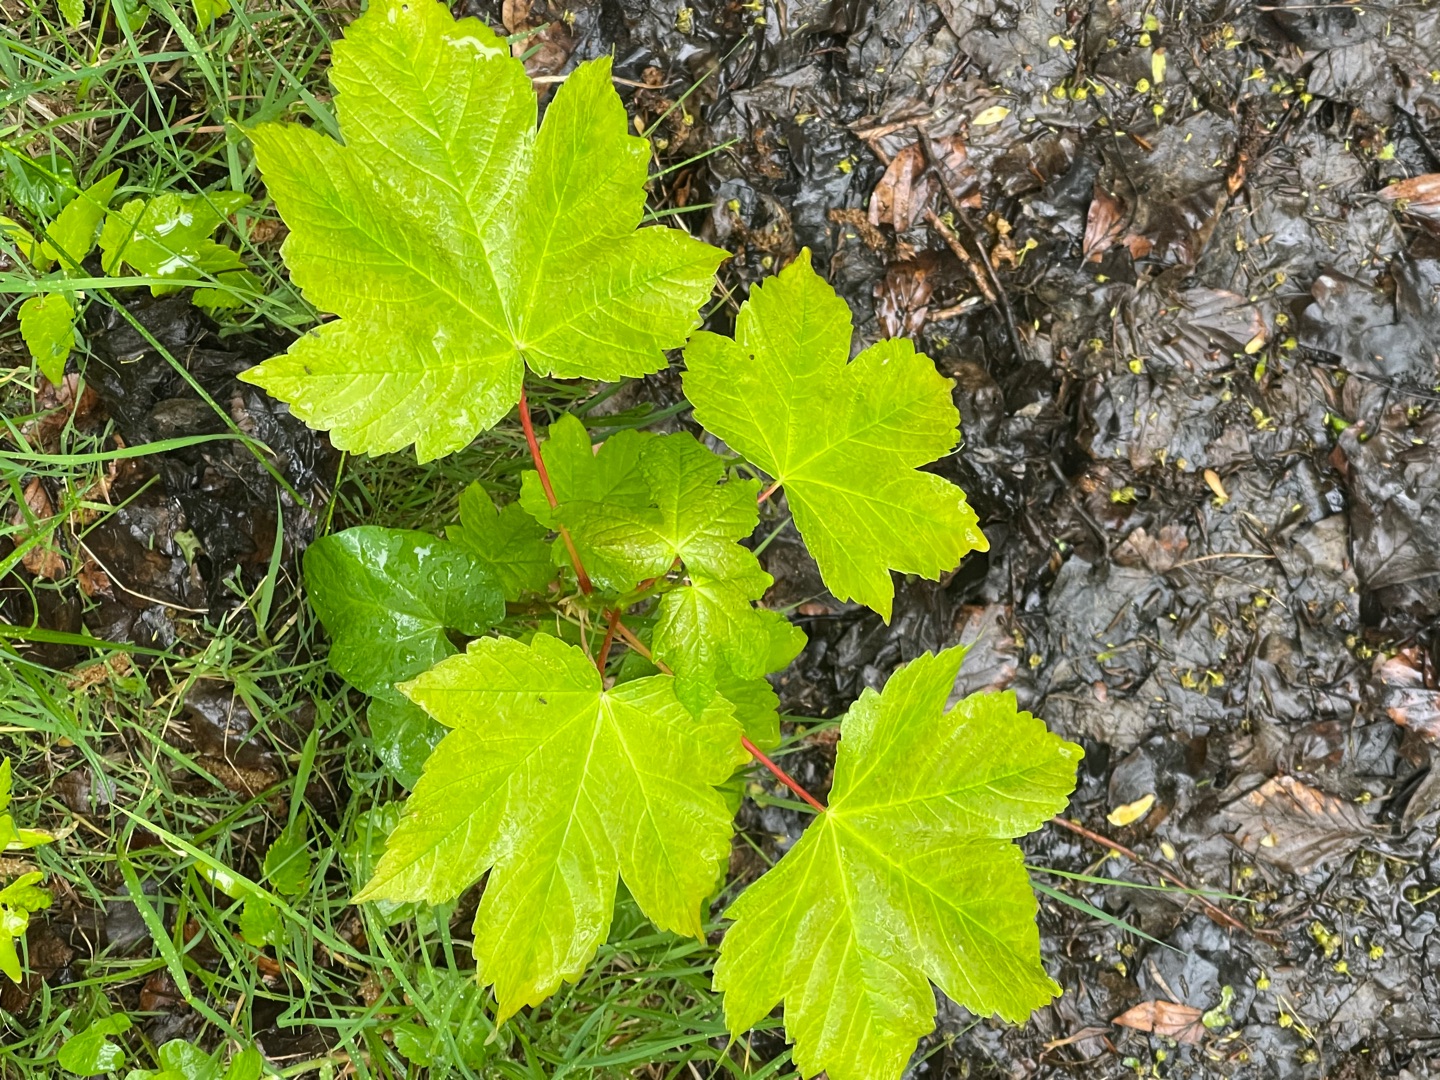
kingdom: Plantae
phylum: Tracheophyta
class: Magnoliopsida
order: Sapindales
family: Sapindaceae
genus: Acer
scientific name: Acer pseudoplatanus
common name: Ahorn
